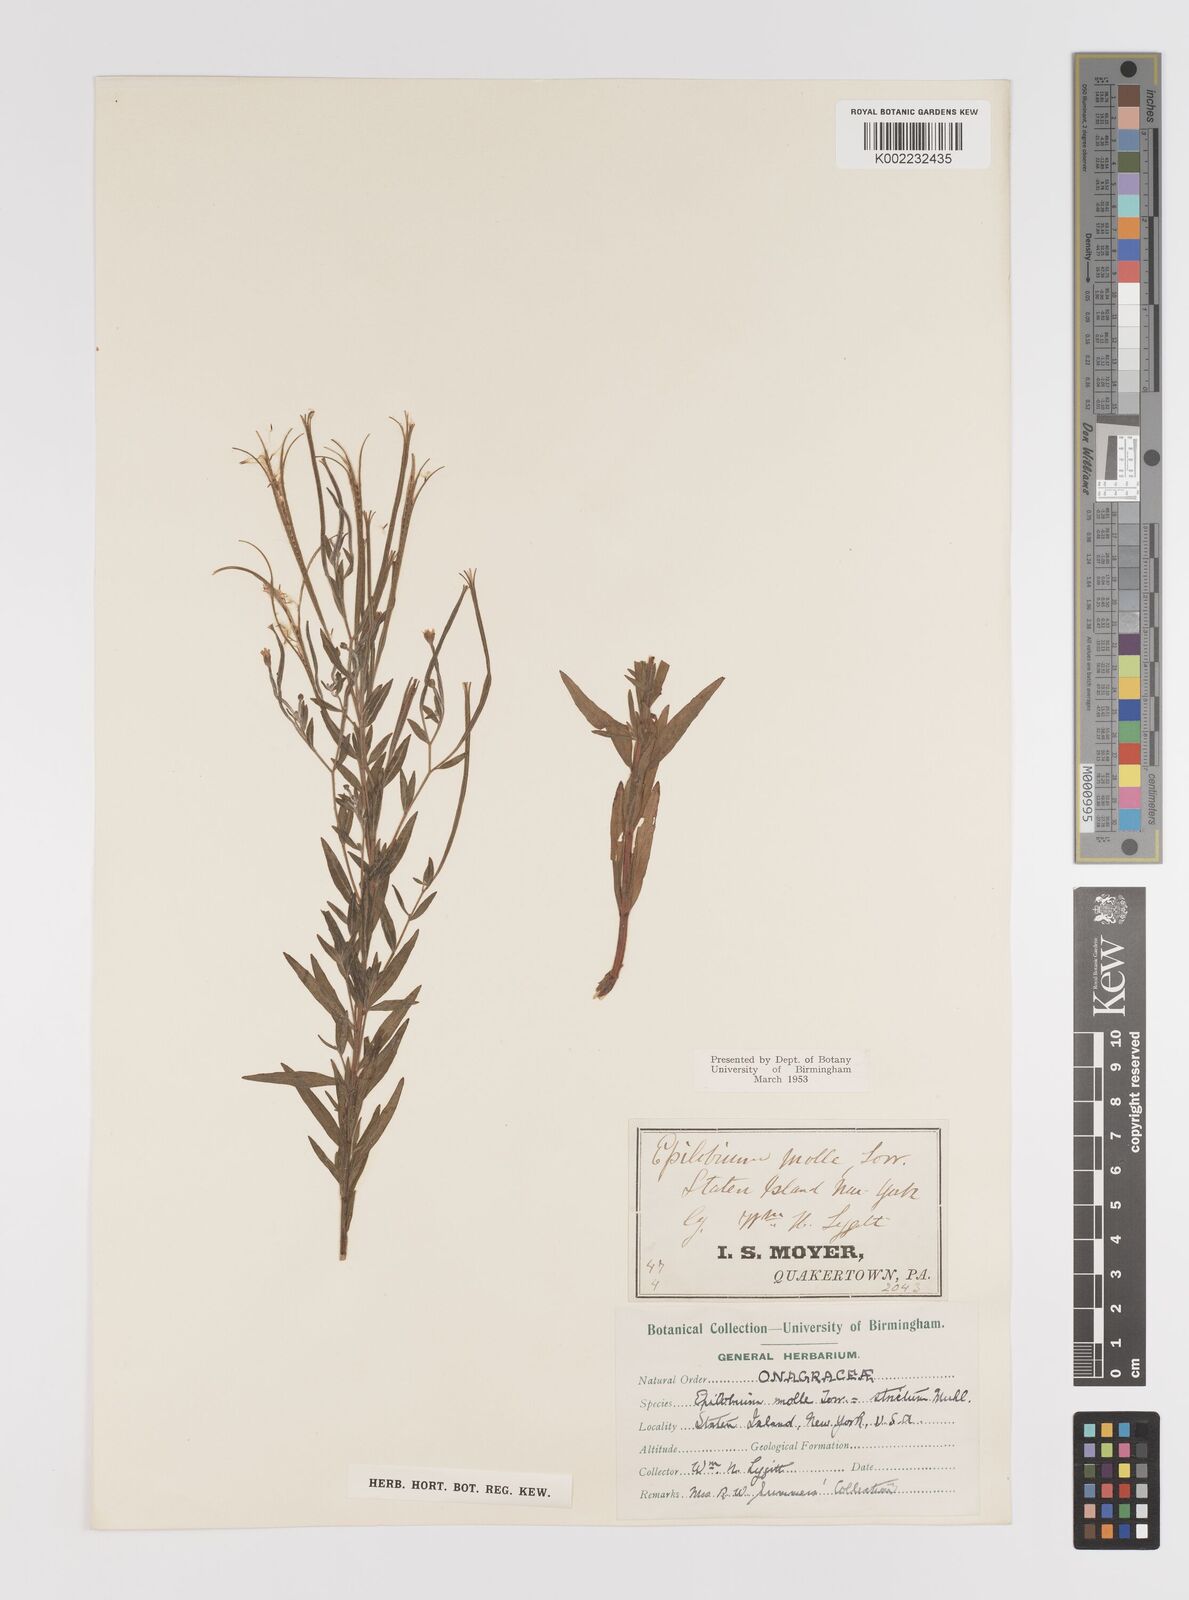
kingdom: Plantae
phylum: Tracheophyta
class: Magnoliopsida
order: Myrtales
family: Onagraceae
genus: Epilobium
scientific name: Epilobium densum
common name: Downy willowherb
